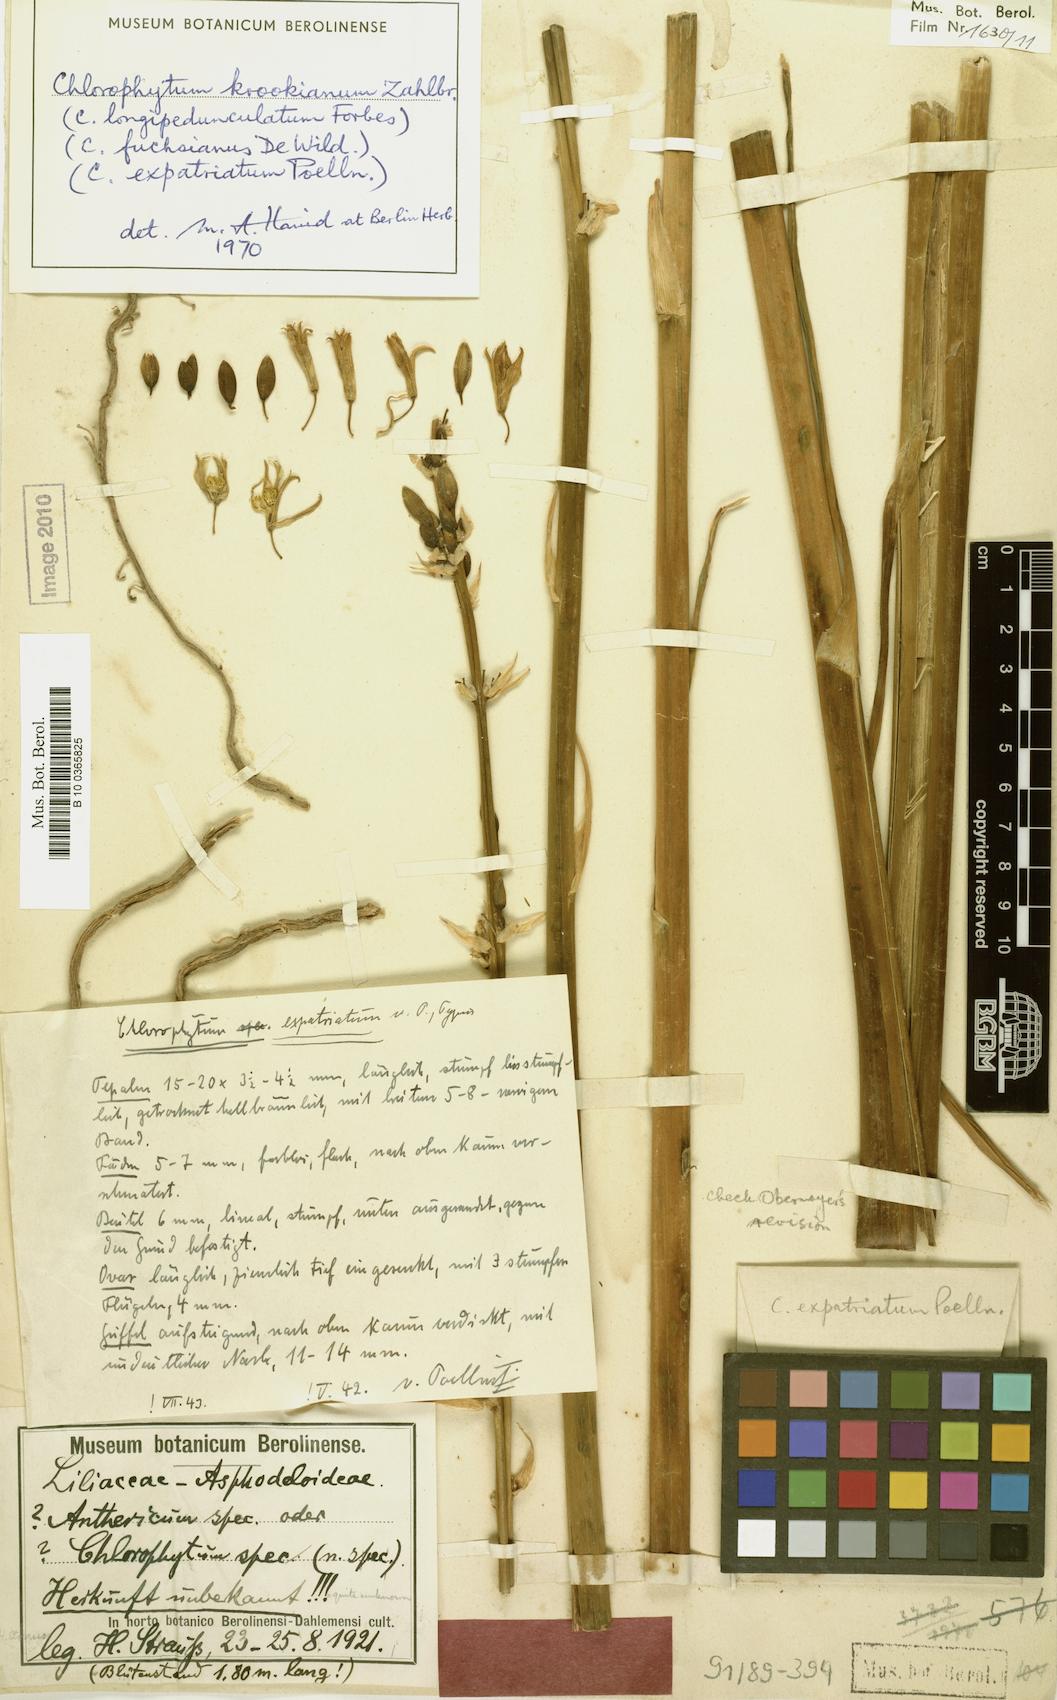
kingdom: Plantae
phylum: Tracheophyta
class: Liliopsida
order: Asparagales
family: Asparagaceae
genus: Chlorophytum
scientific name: Chlorophytum krookianum
